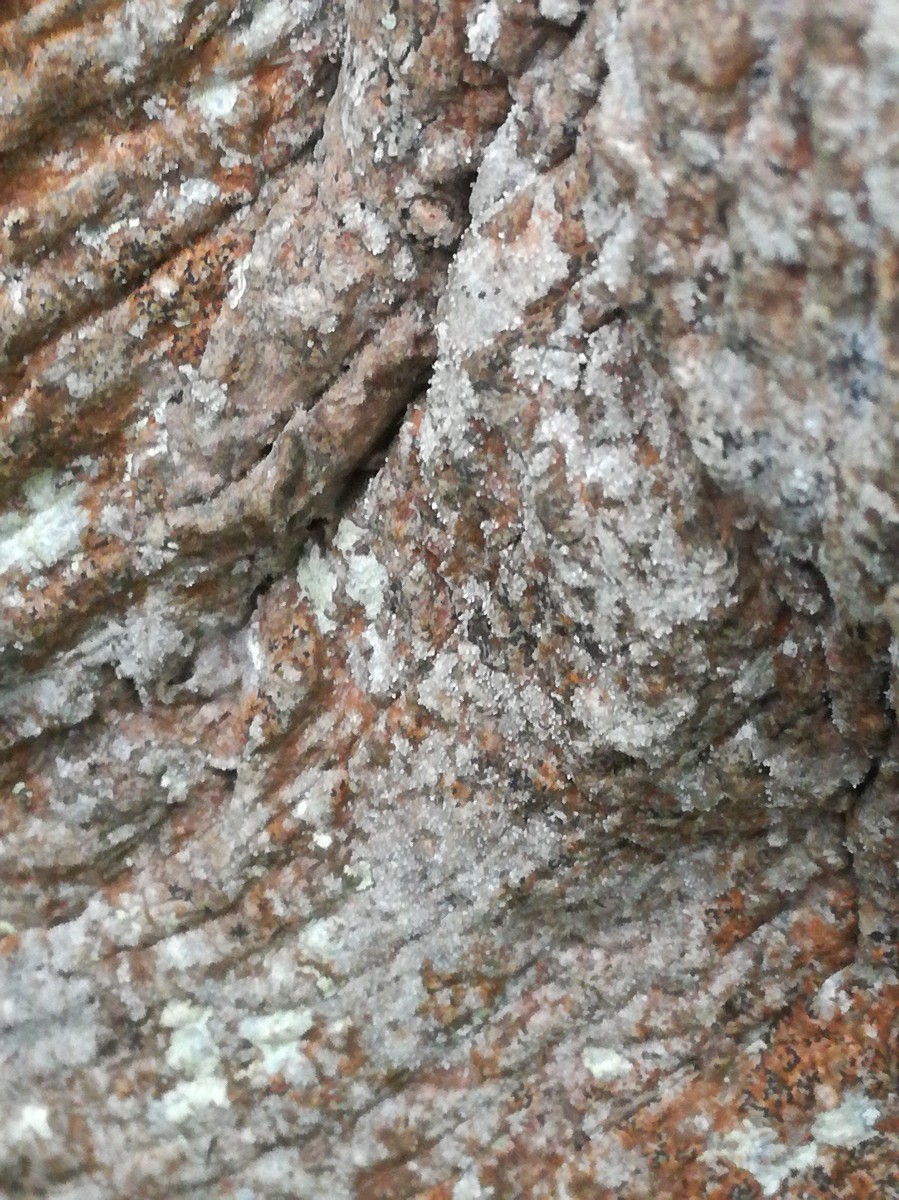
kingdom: Fungi
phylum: Ascomycota
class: Arthoniomycetes
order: Arthoniales
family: Opegraphaceae
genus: Opegrapha
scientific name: Opegrapha vermicellifera
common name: nåleprikket bogstavlav
